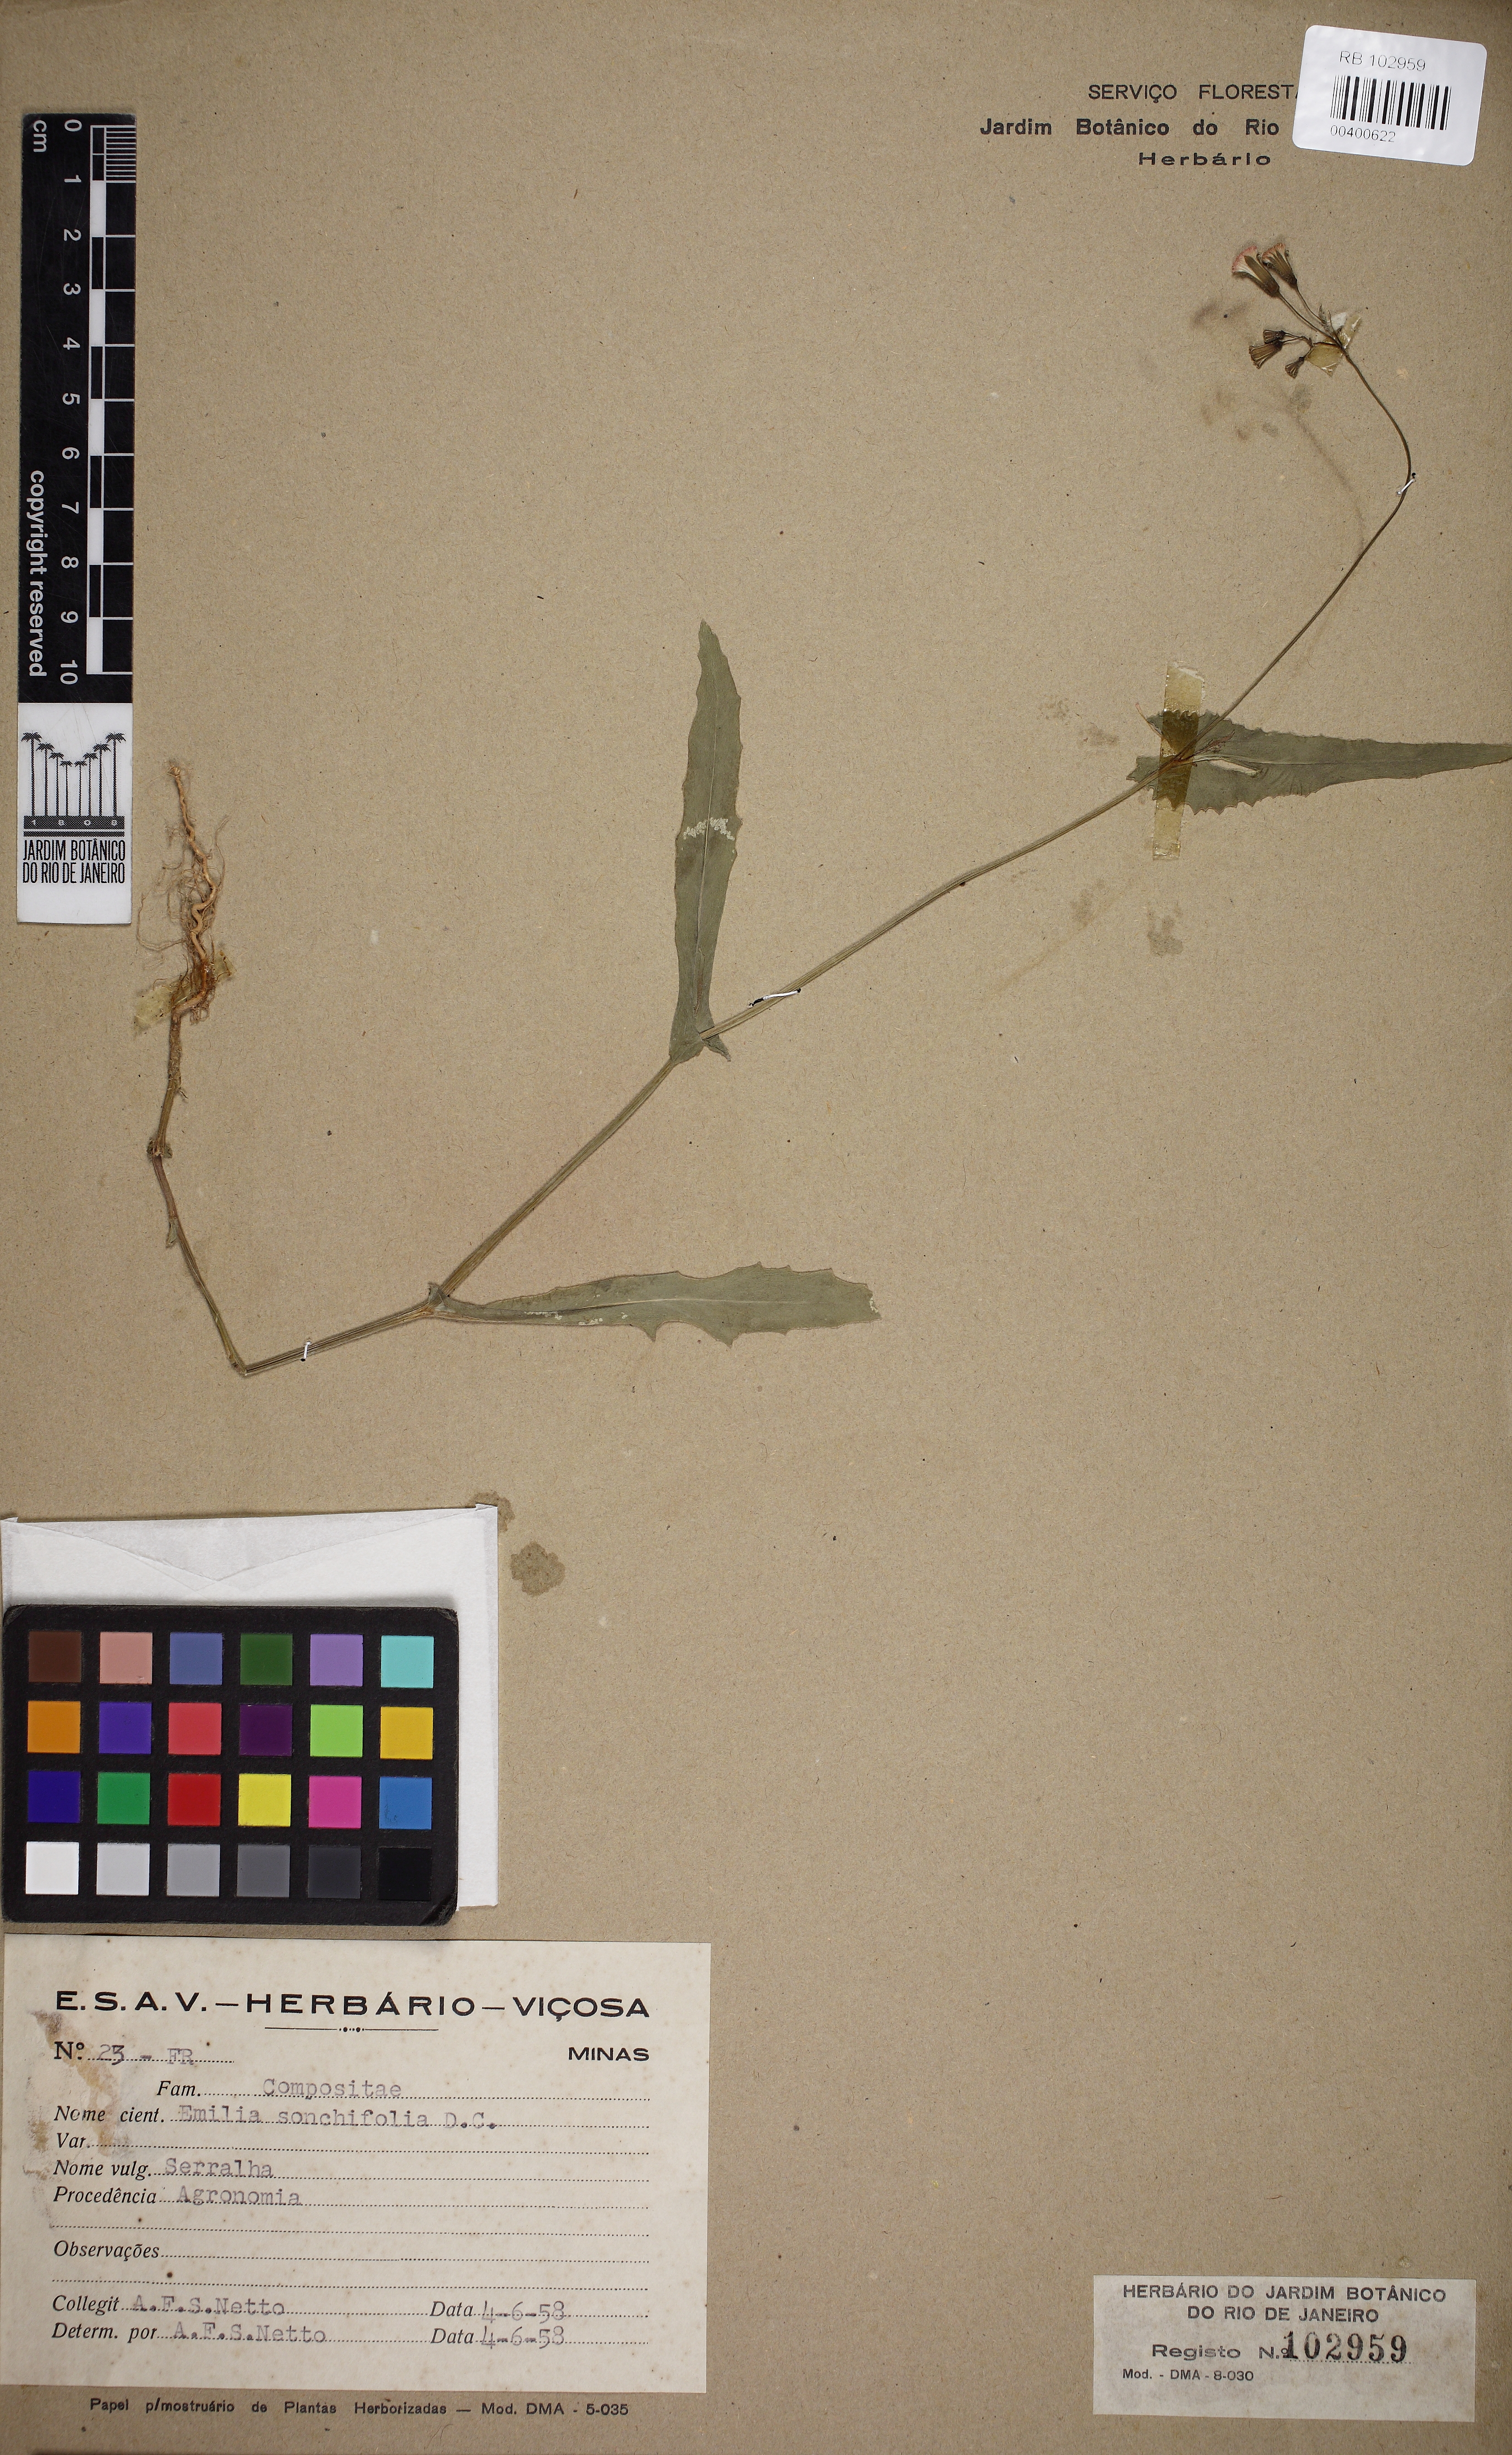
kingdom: Plantae
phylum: Tracheophyta
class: Magnoliopsida
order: Asterales
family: Asteraceae
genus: Emilia
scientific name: Emilia sonchifolia
